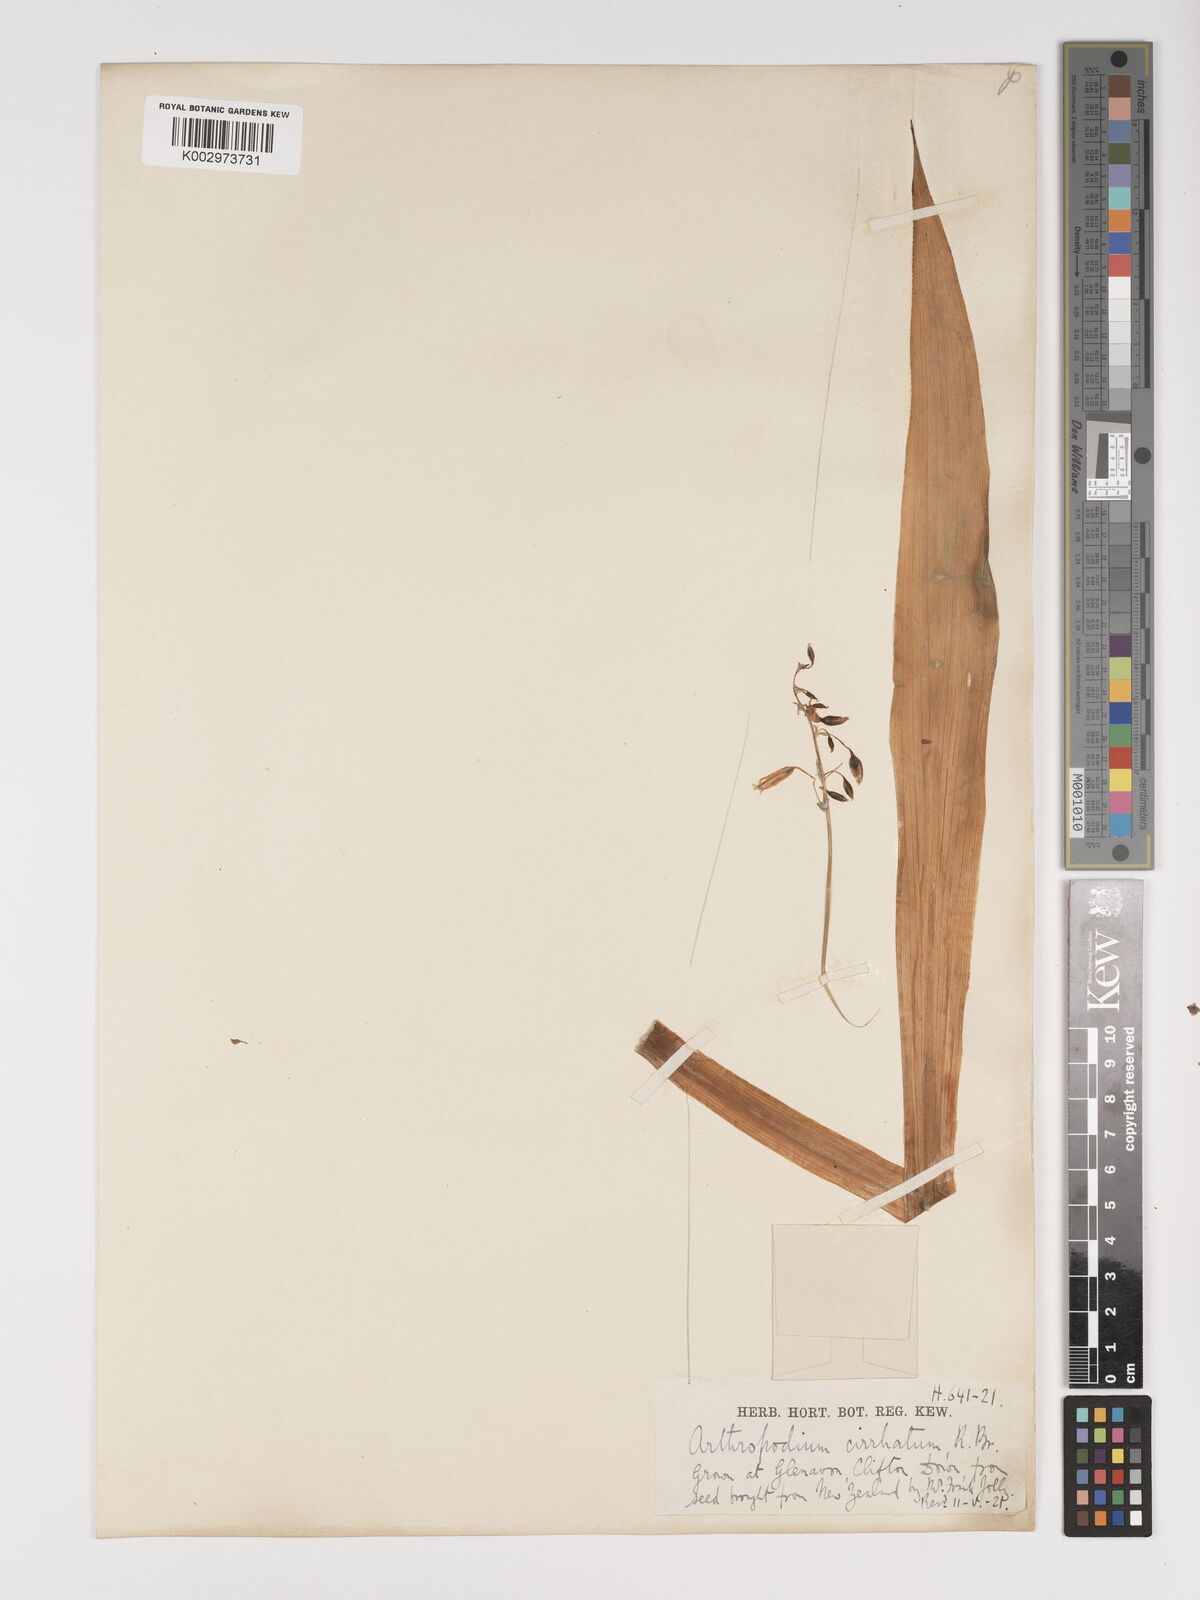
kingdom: Plantae
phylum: Tracheophyta
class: Liliopsida
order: Asparagales
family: Asparagaceae
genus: Arthropodium
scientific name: Arthropodium cirratum
